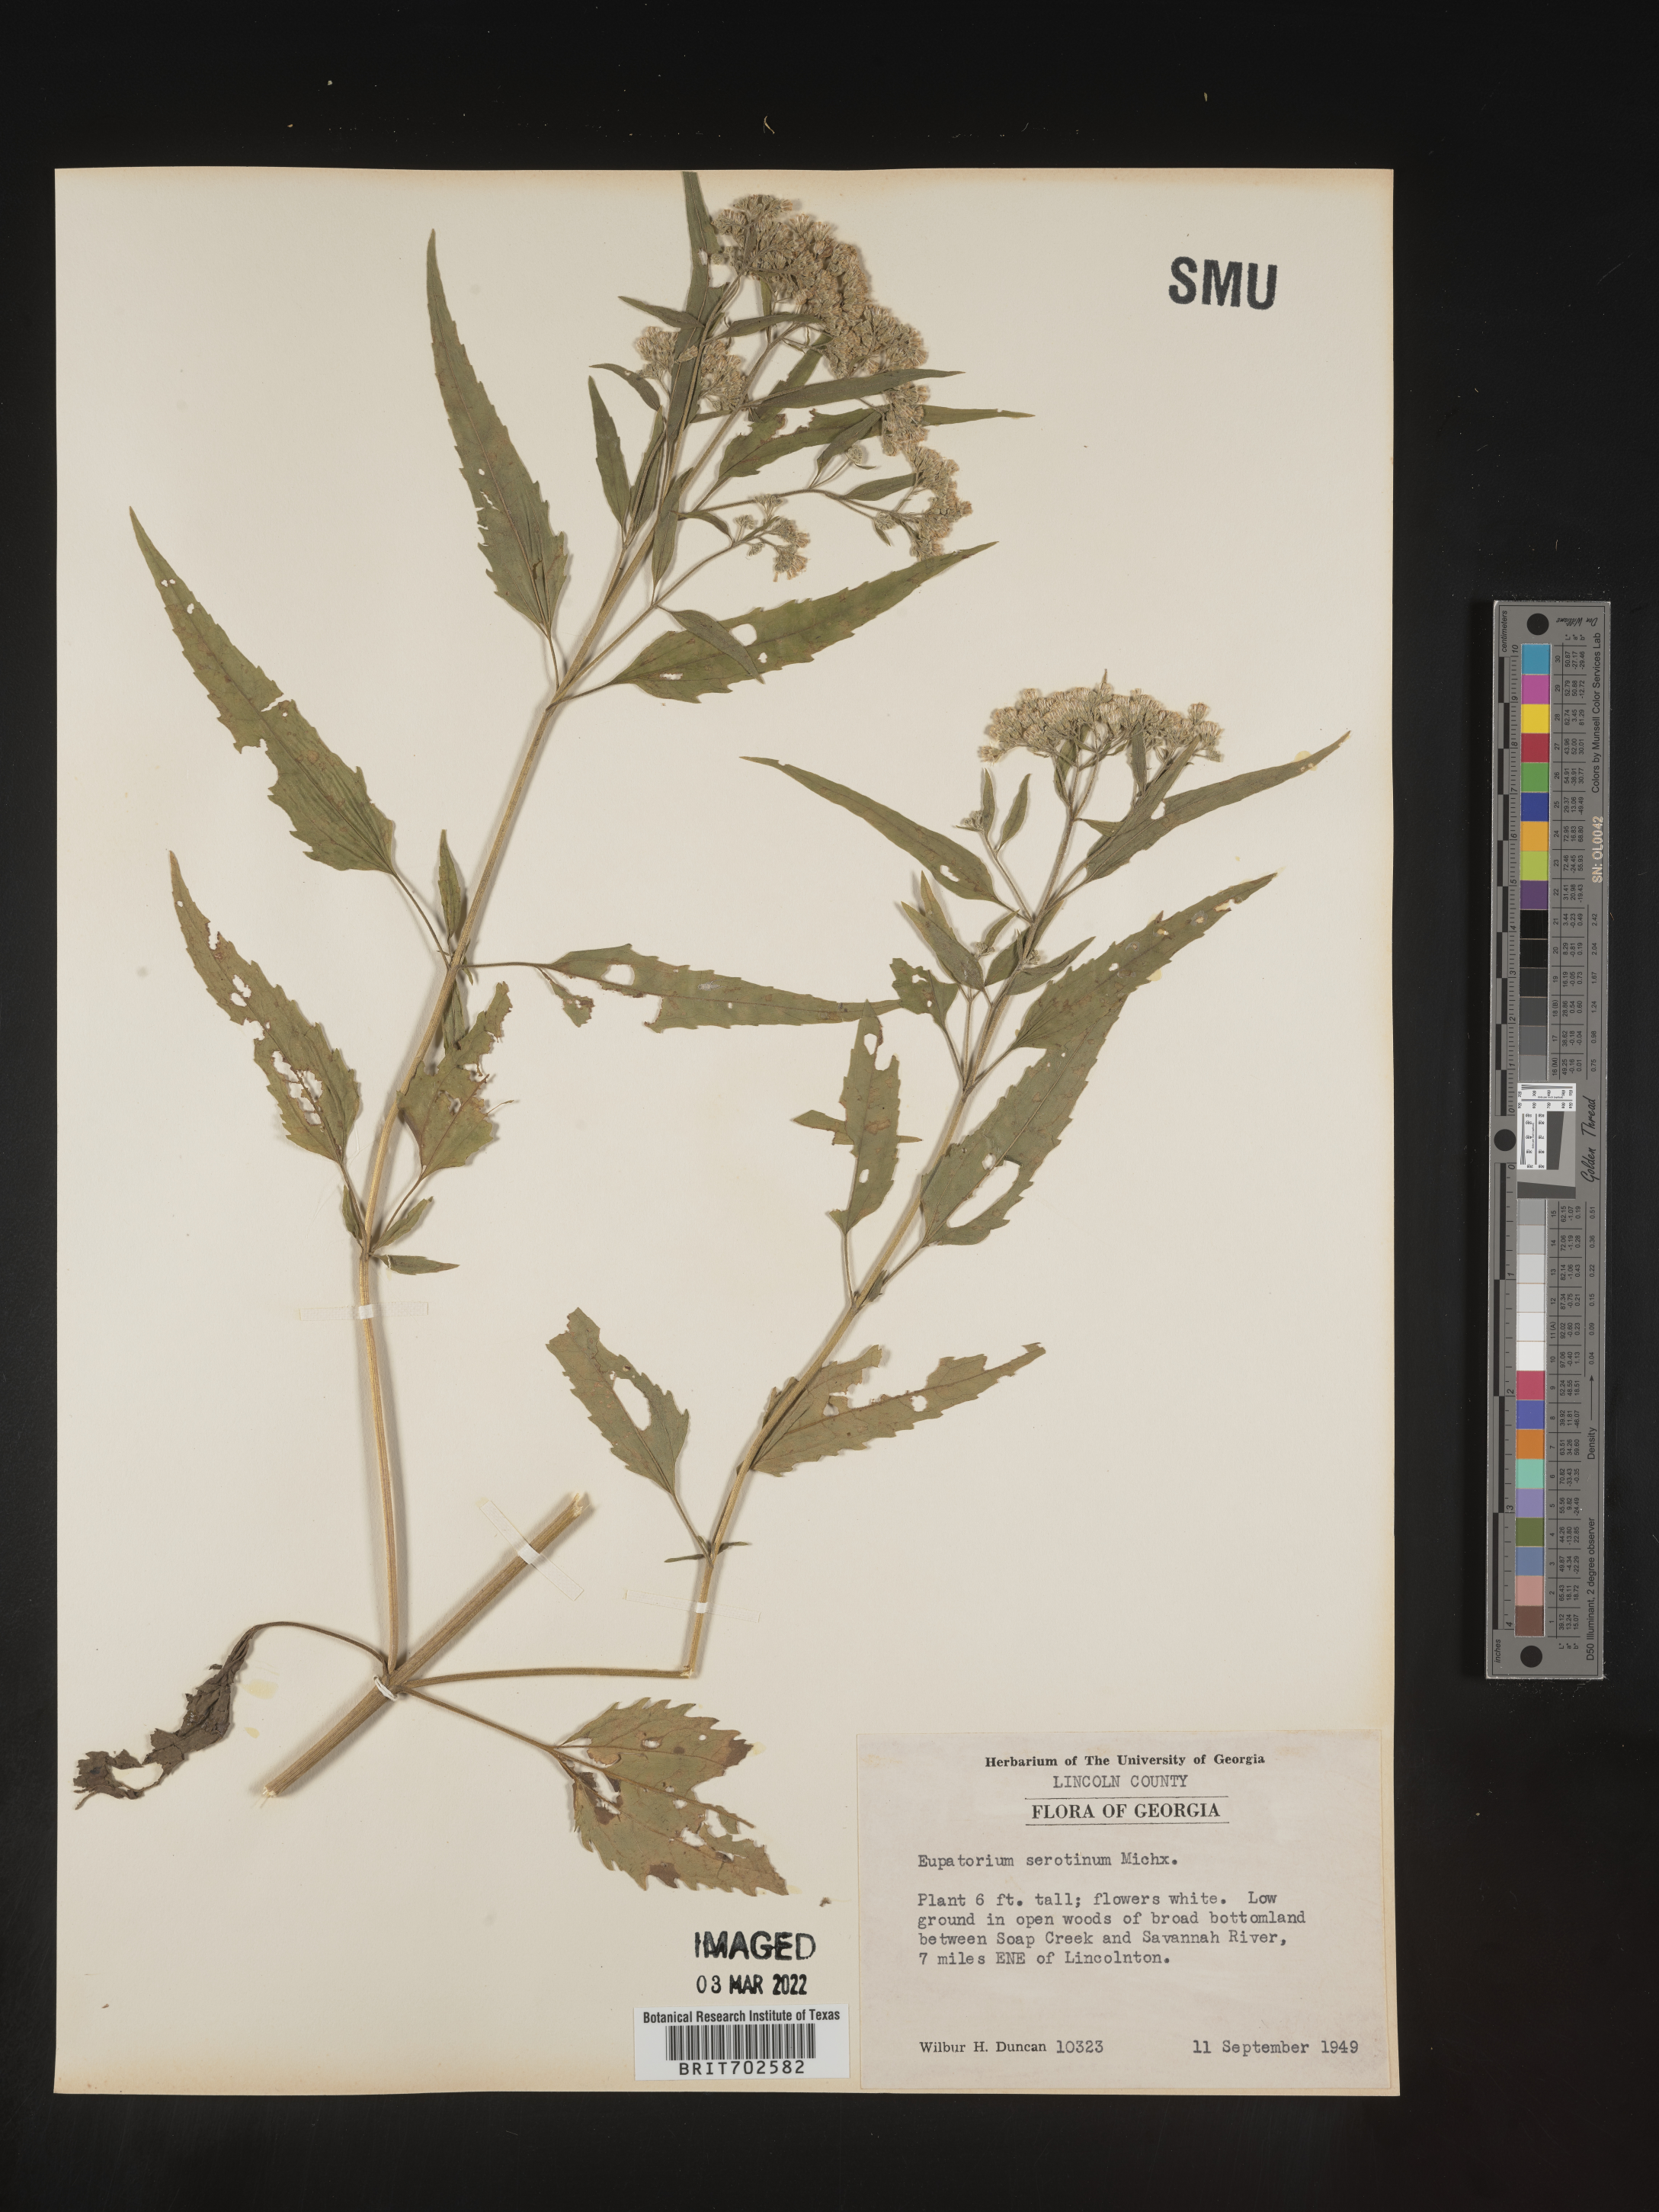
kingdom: Plantae
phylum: Tracheophyta
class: Magnoliopsida
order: Asterales
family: Asteraceae
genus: Eupatorium
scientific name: Eupatorium serotinum
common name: Late boneset
